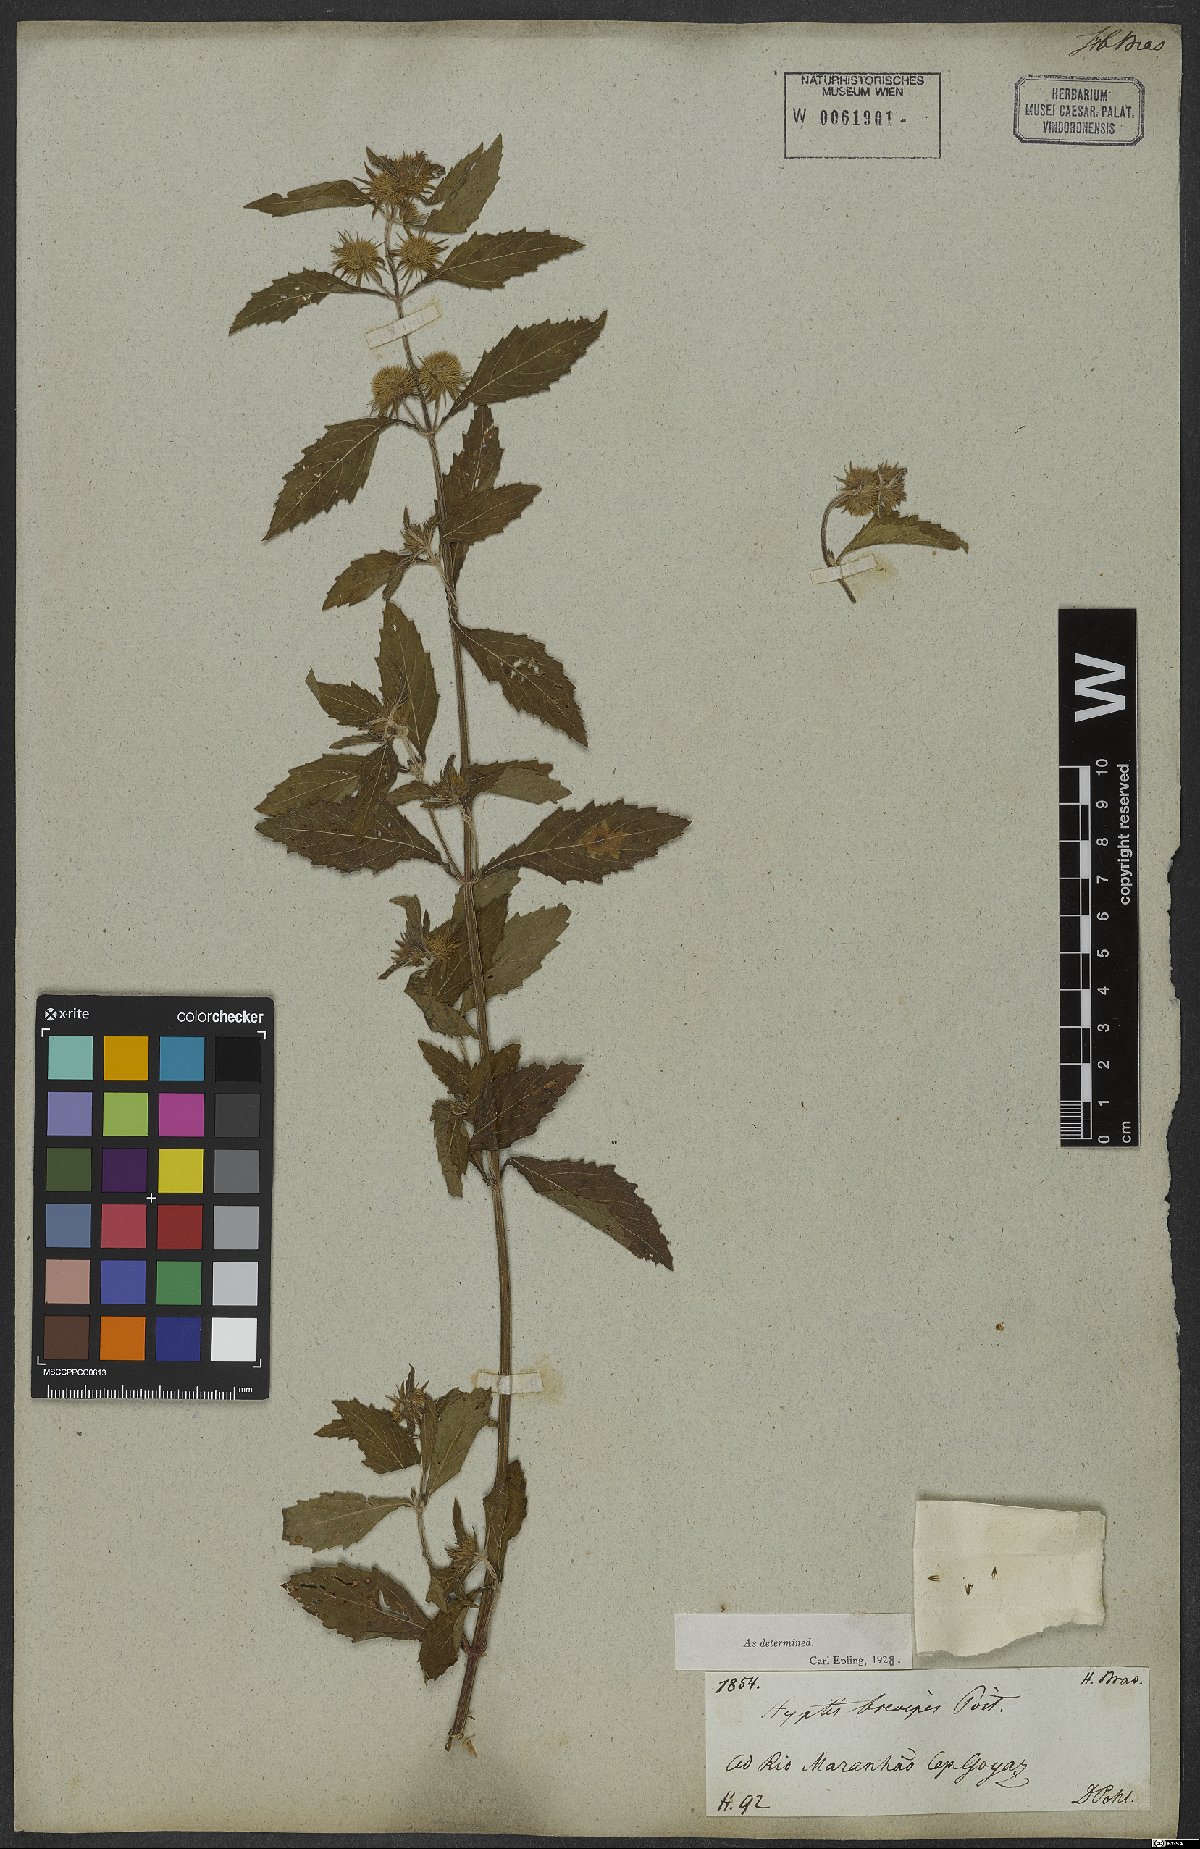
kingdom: Plantae
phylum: Tracheophyta
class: Magnoliopsida
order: Lamiales
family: Lamiaceae
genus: Hyptis
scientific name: Hyptis brevipes
